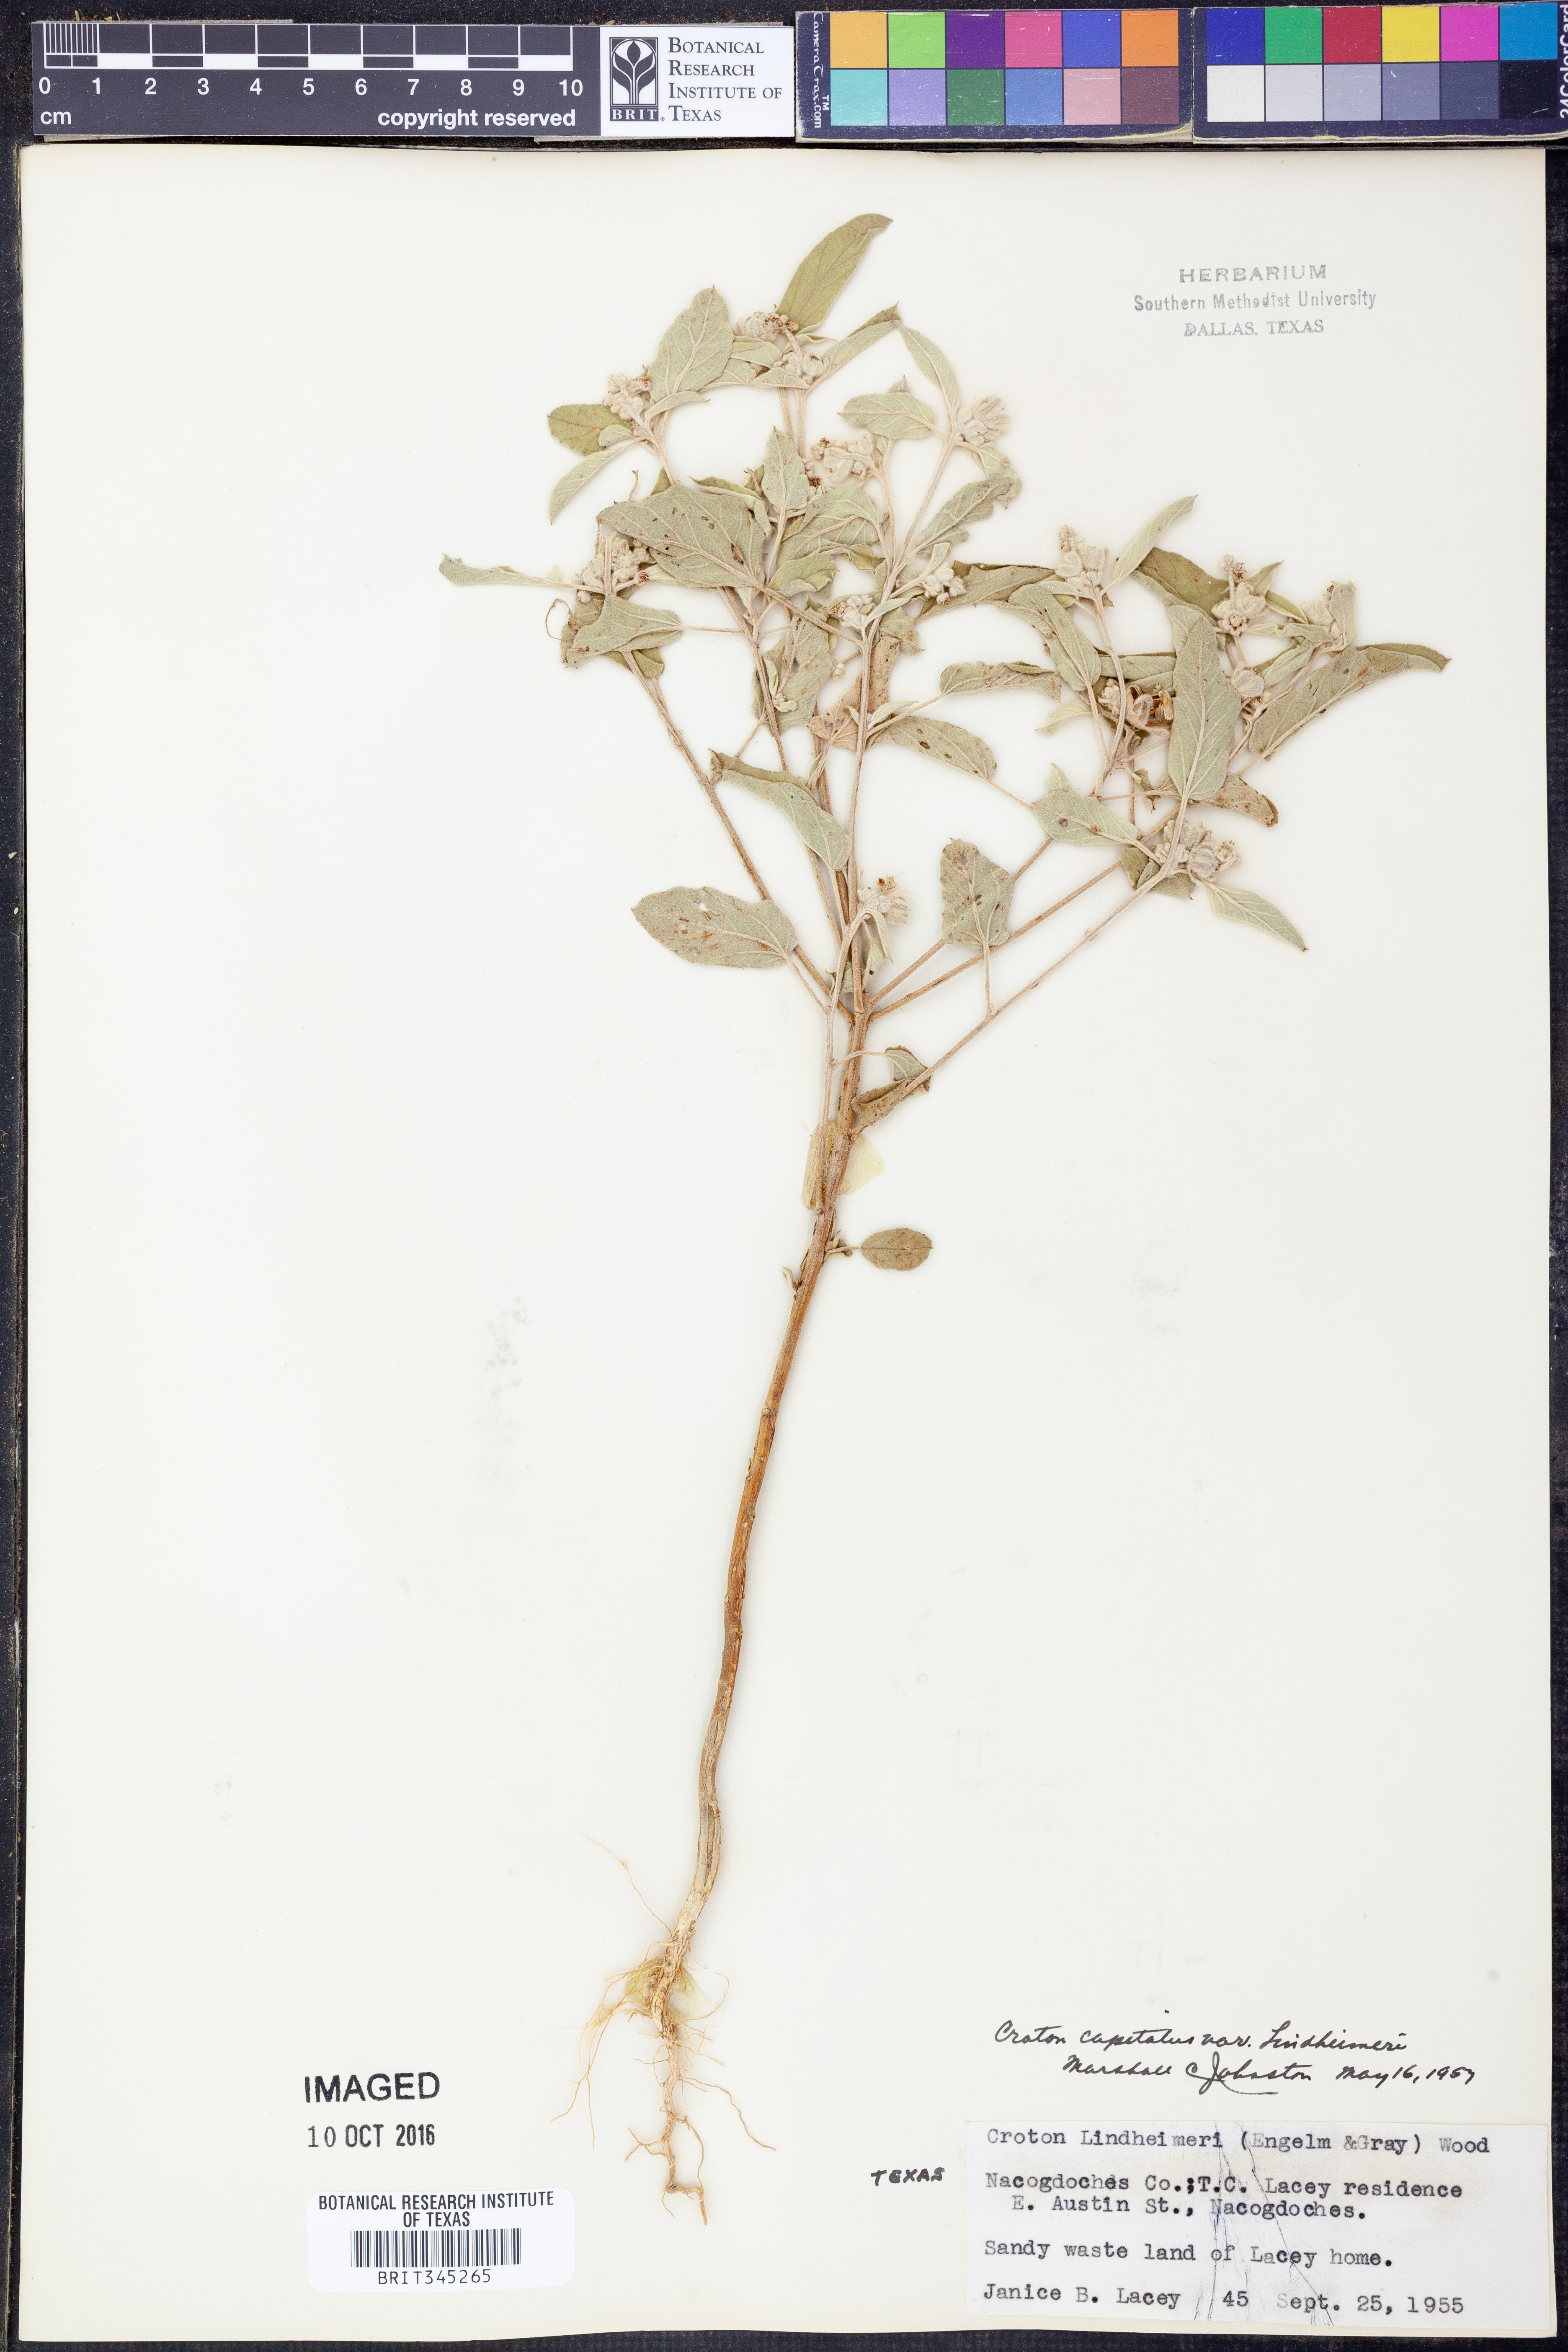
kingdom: Plantae
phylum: Tracheophyta
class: Magnoliopsida
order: Malpighiales
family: Euphorbiaceae
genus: Croton
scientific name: Croton lindheimeri
